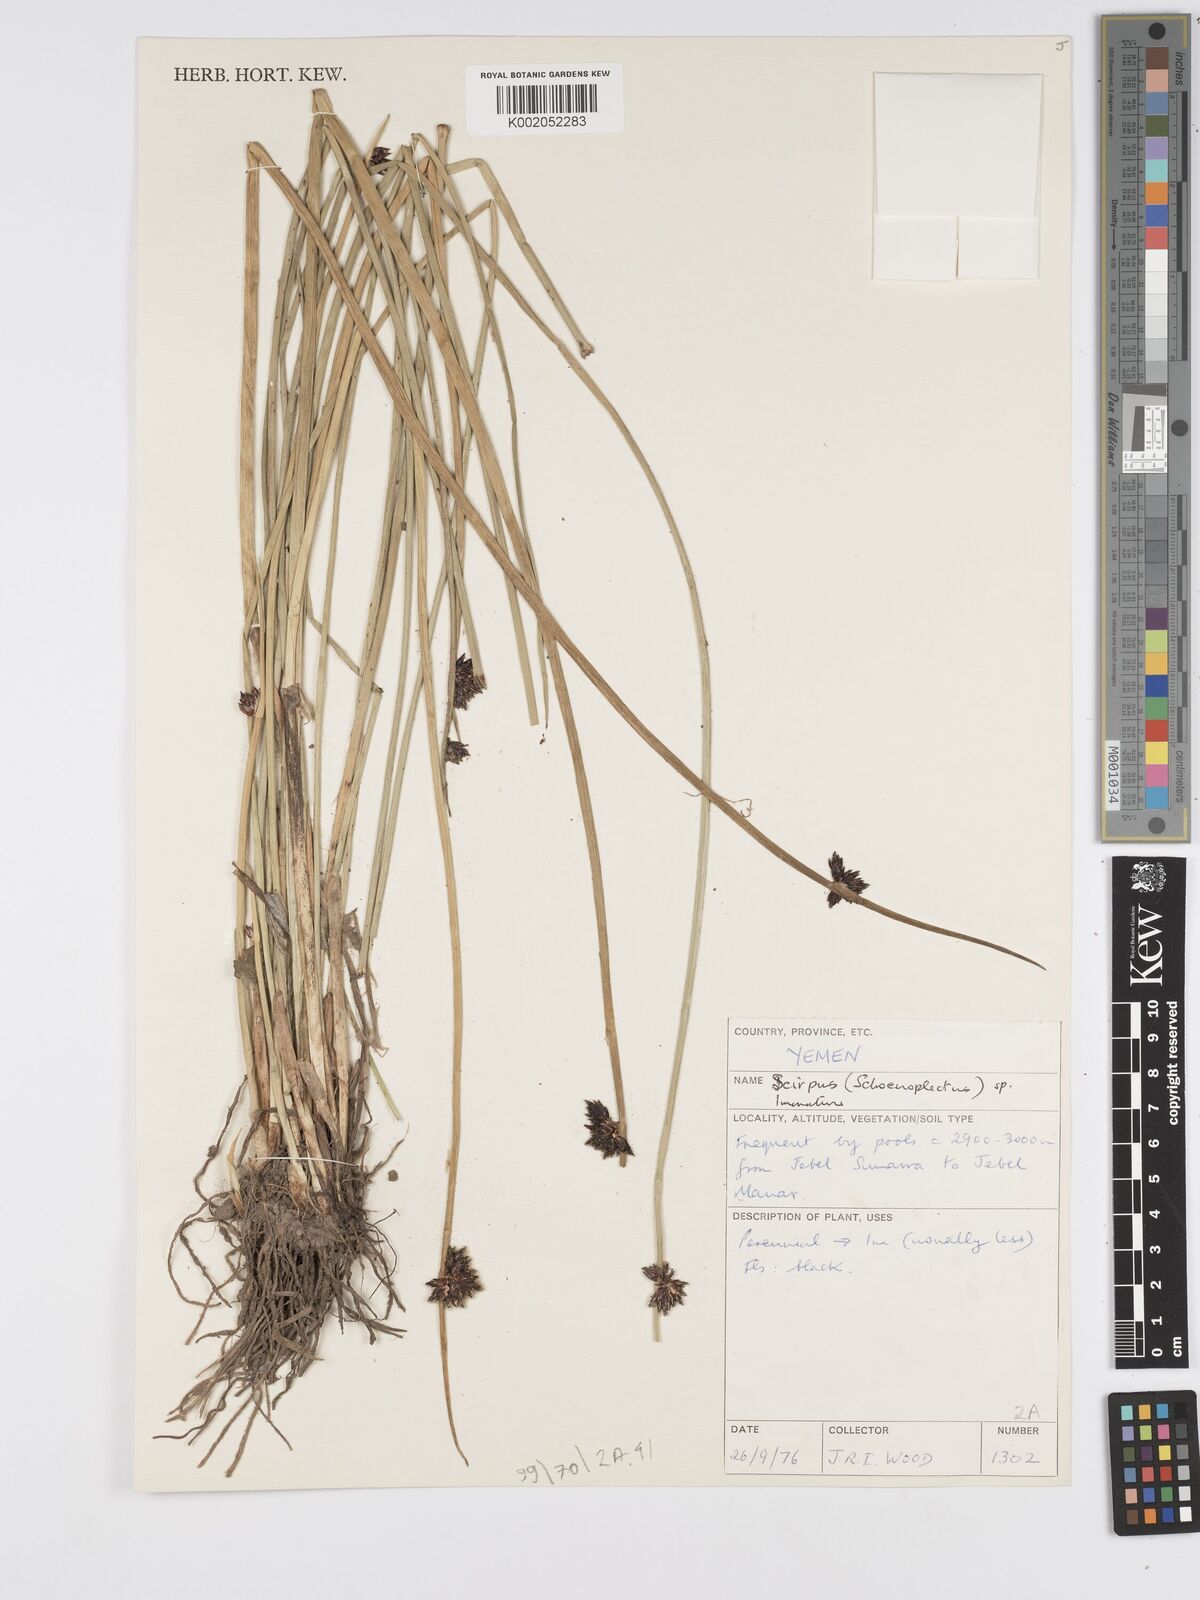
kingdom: Plantae
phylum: Tracheophyta
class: Liliopsida
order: Poales
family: Cyperaceae
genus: Scirpus
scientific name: Scirpus
